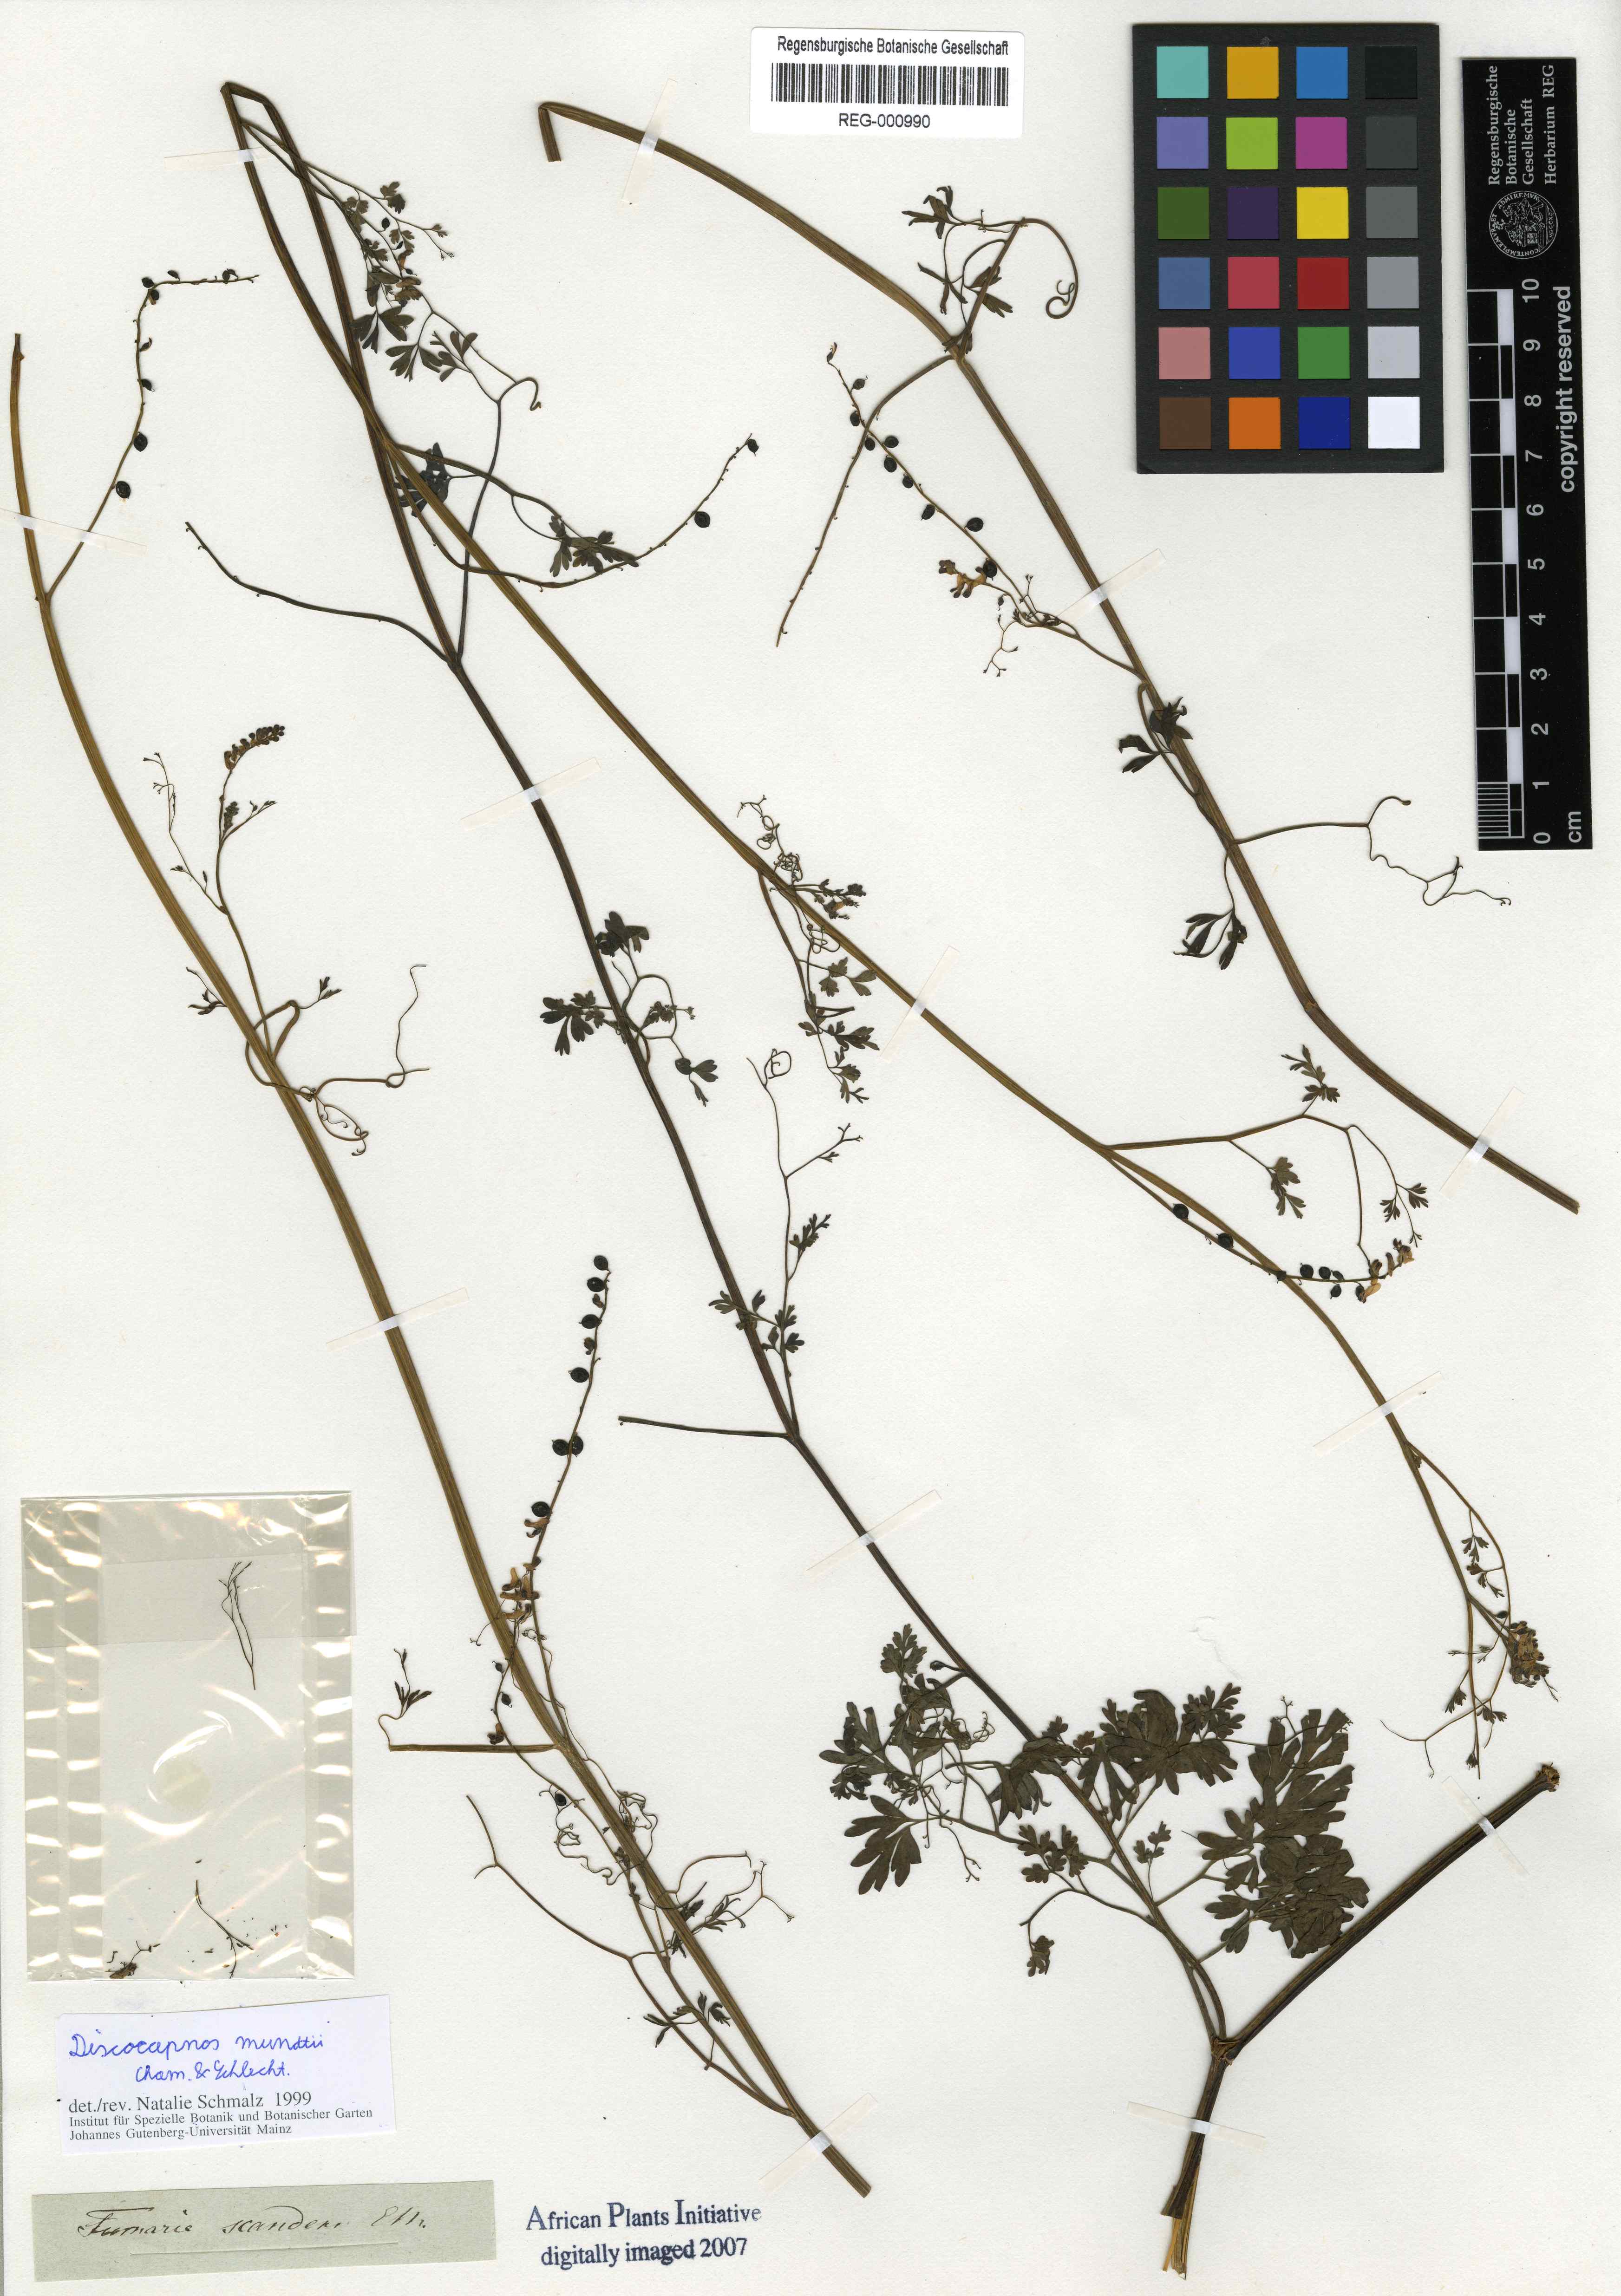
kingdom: Plantae
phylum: Tracheophyta
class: Magnoliopsida
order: Ranunculales
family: Papaveraceae
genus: Discocapnos
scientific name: Discocapnos mundti
